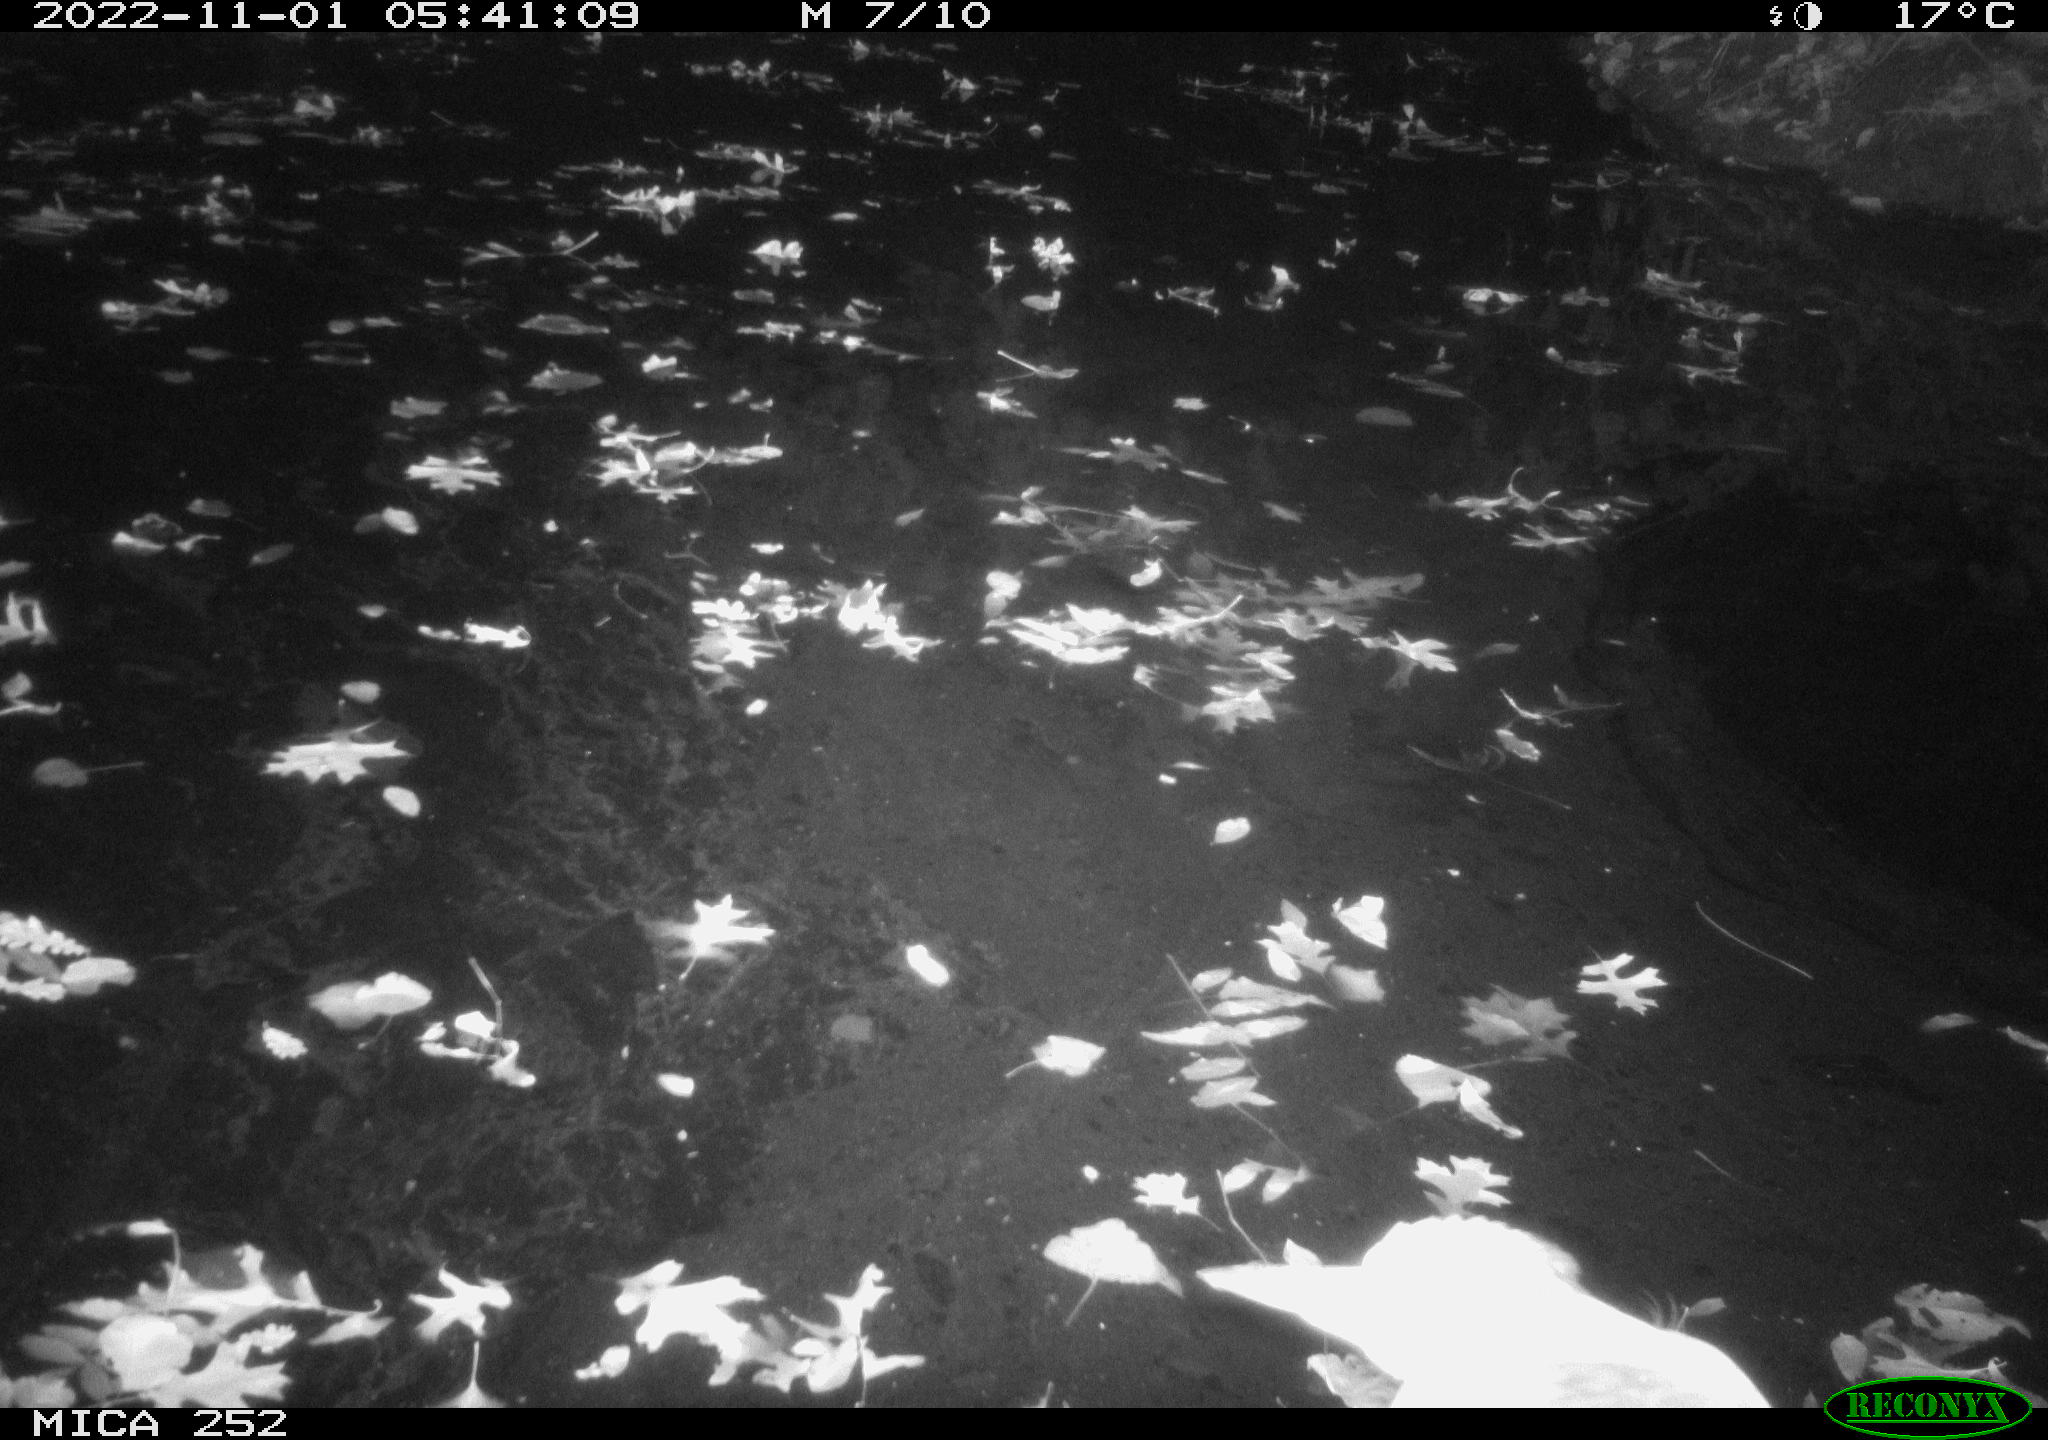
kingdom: Animalia
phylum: Chordata
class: Aves
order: Pelecaniformes
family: Ardeidae
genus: Ardea
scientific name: Ardea cinerea
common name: Grey heron
